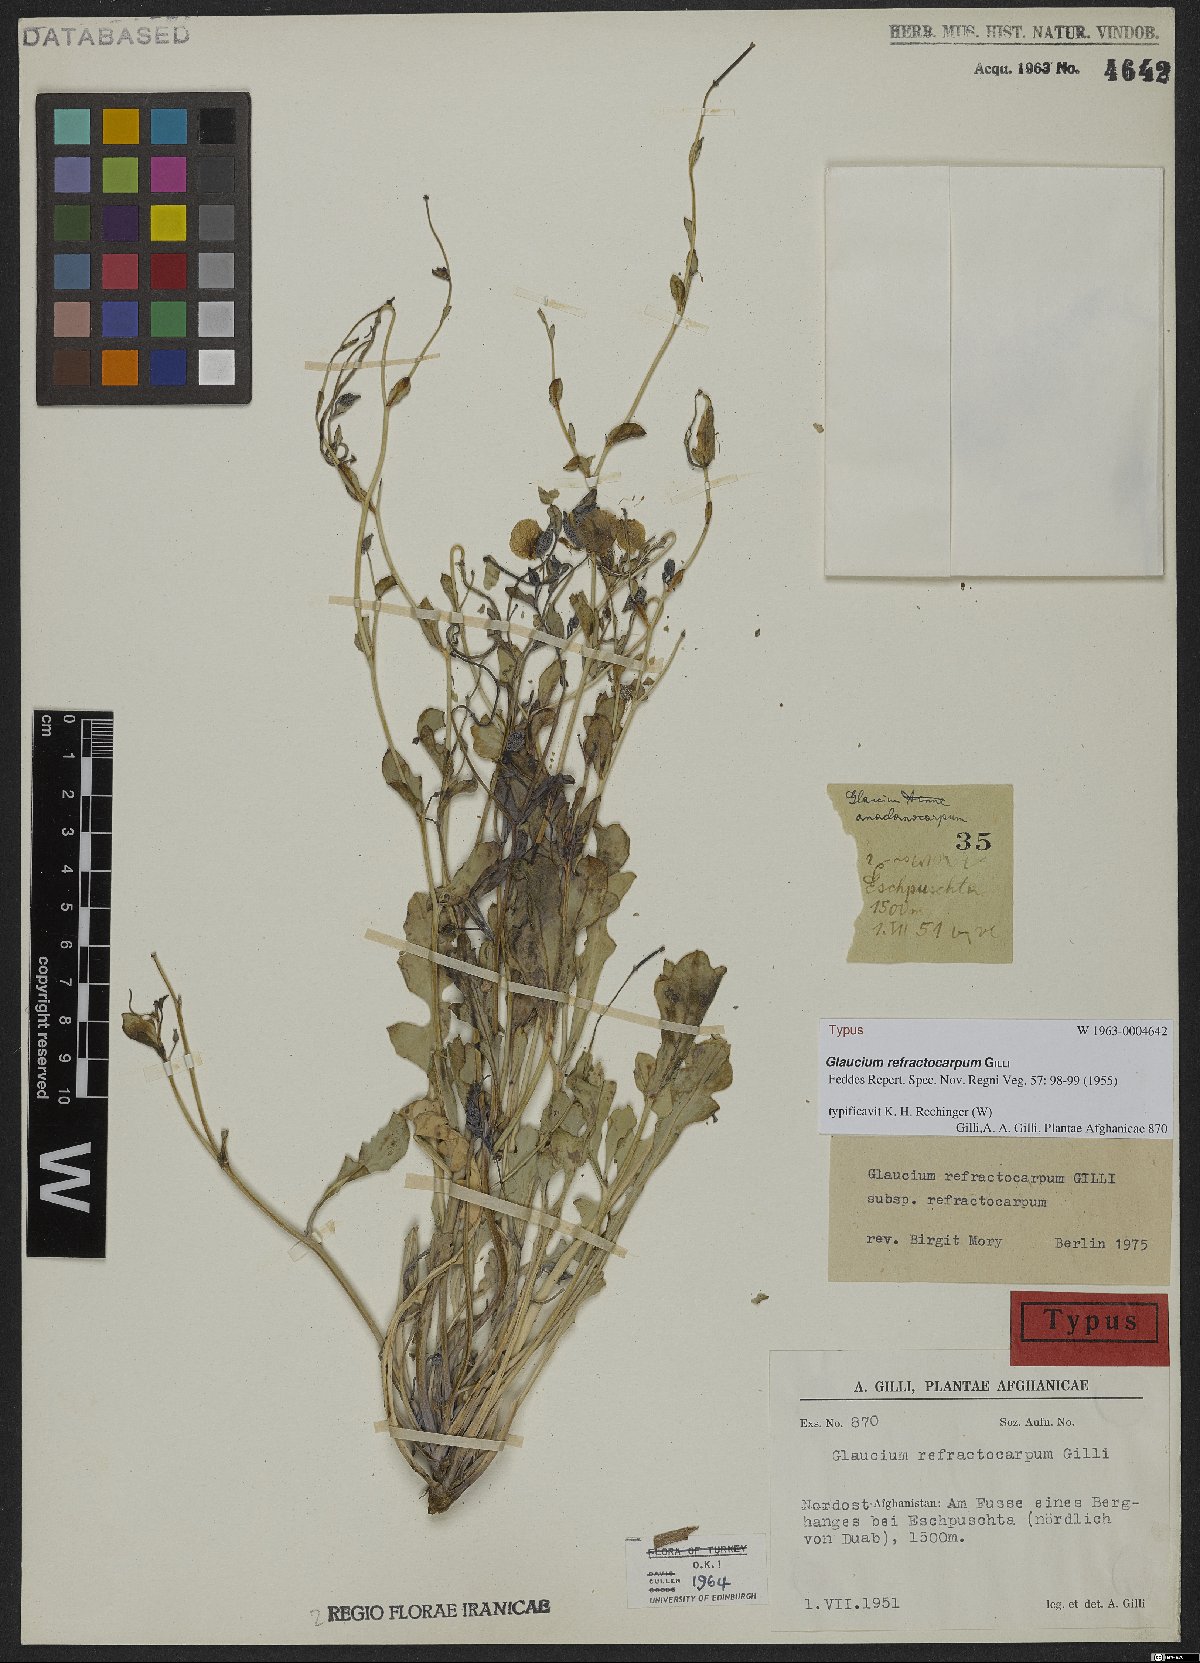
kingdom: Plantae
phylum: Tracheophyta
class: Magnoliopsida
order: Ranunculales
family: Papaveraceae
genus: Glaucium
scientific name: Glaucium refractocarpum
